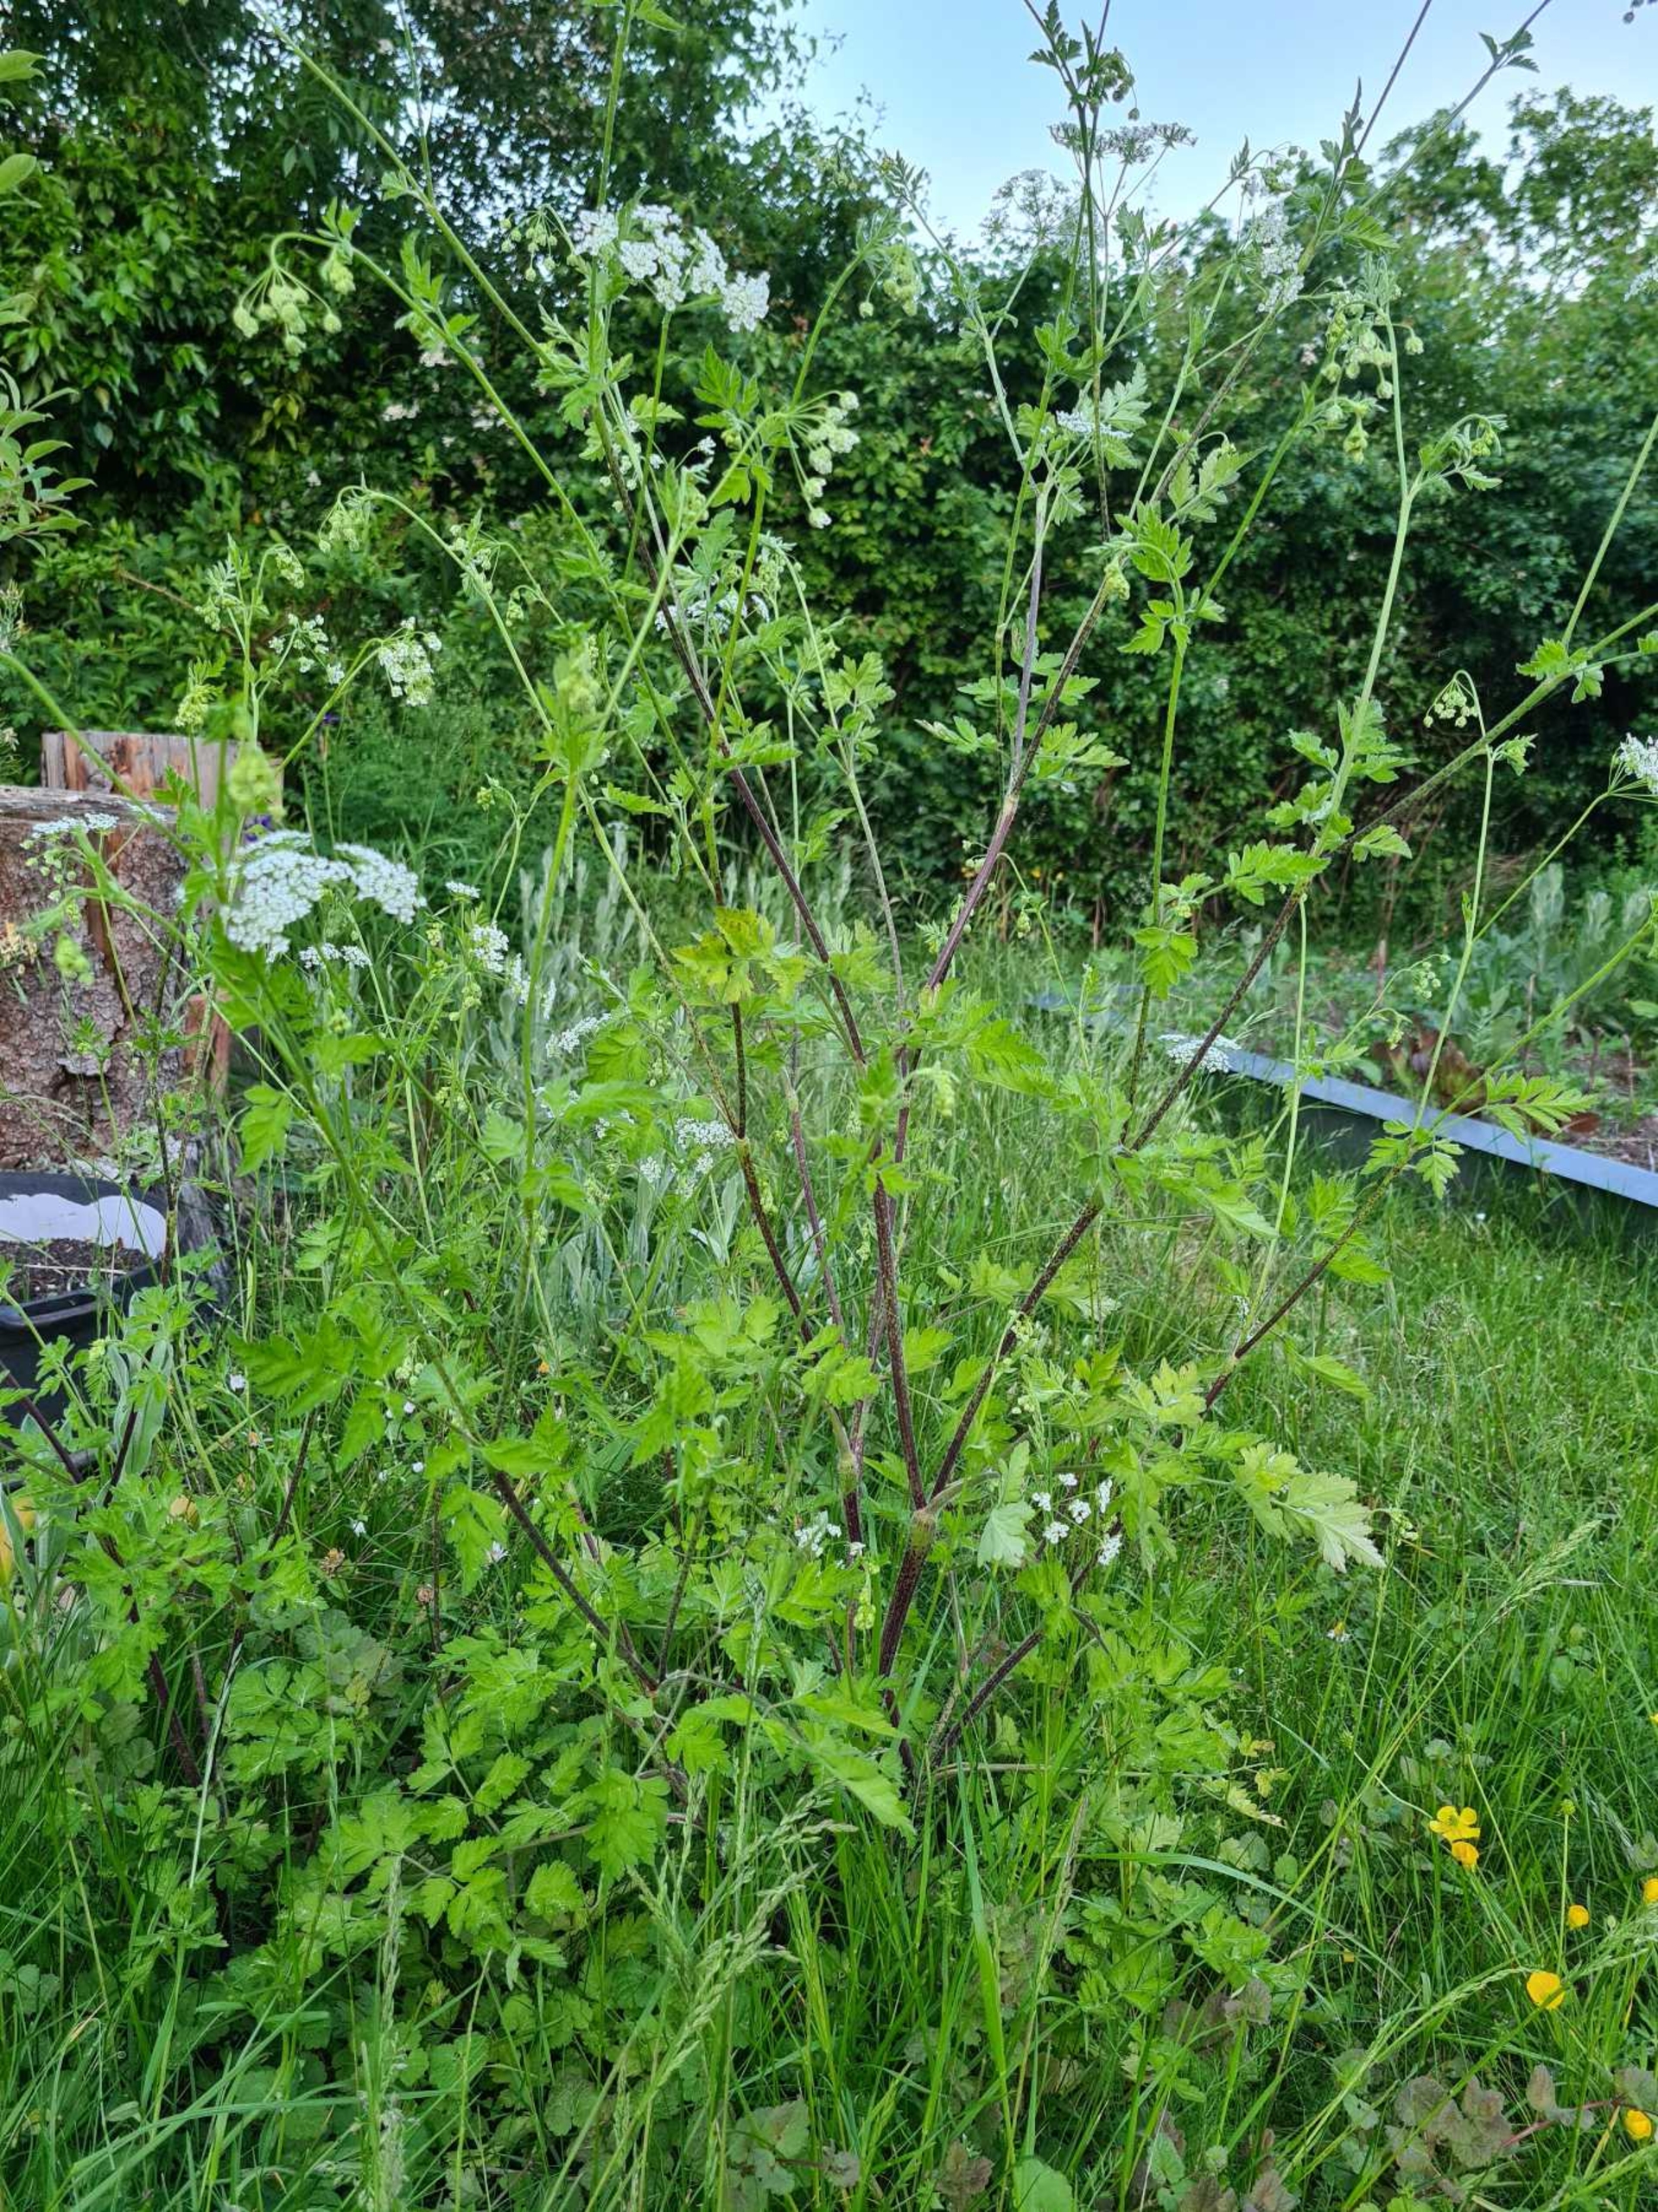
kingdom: Plantae
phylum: Tracheophyta
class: Magnoliopsida
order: Apiales
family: Apiaceae
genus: Chaerophyllum
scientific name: Chaerophyllum temulum
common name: Almindelig hulsvøb
